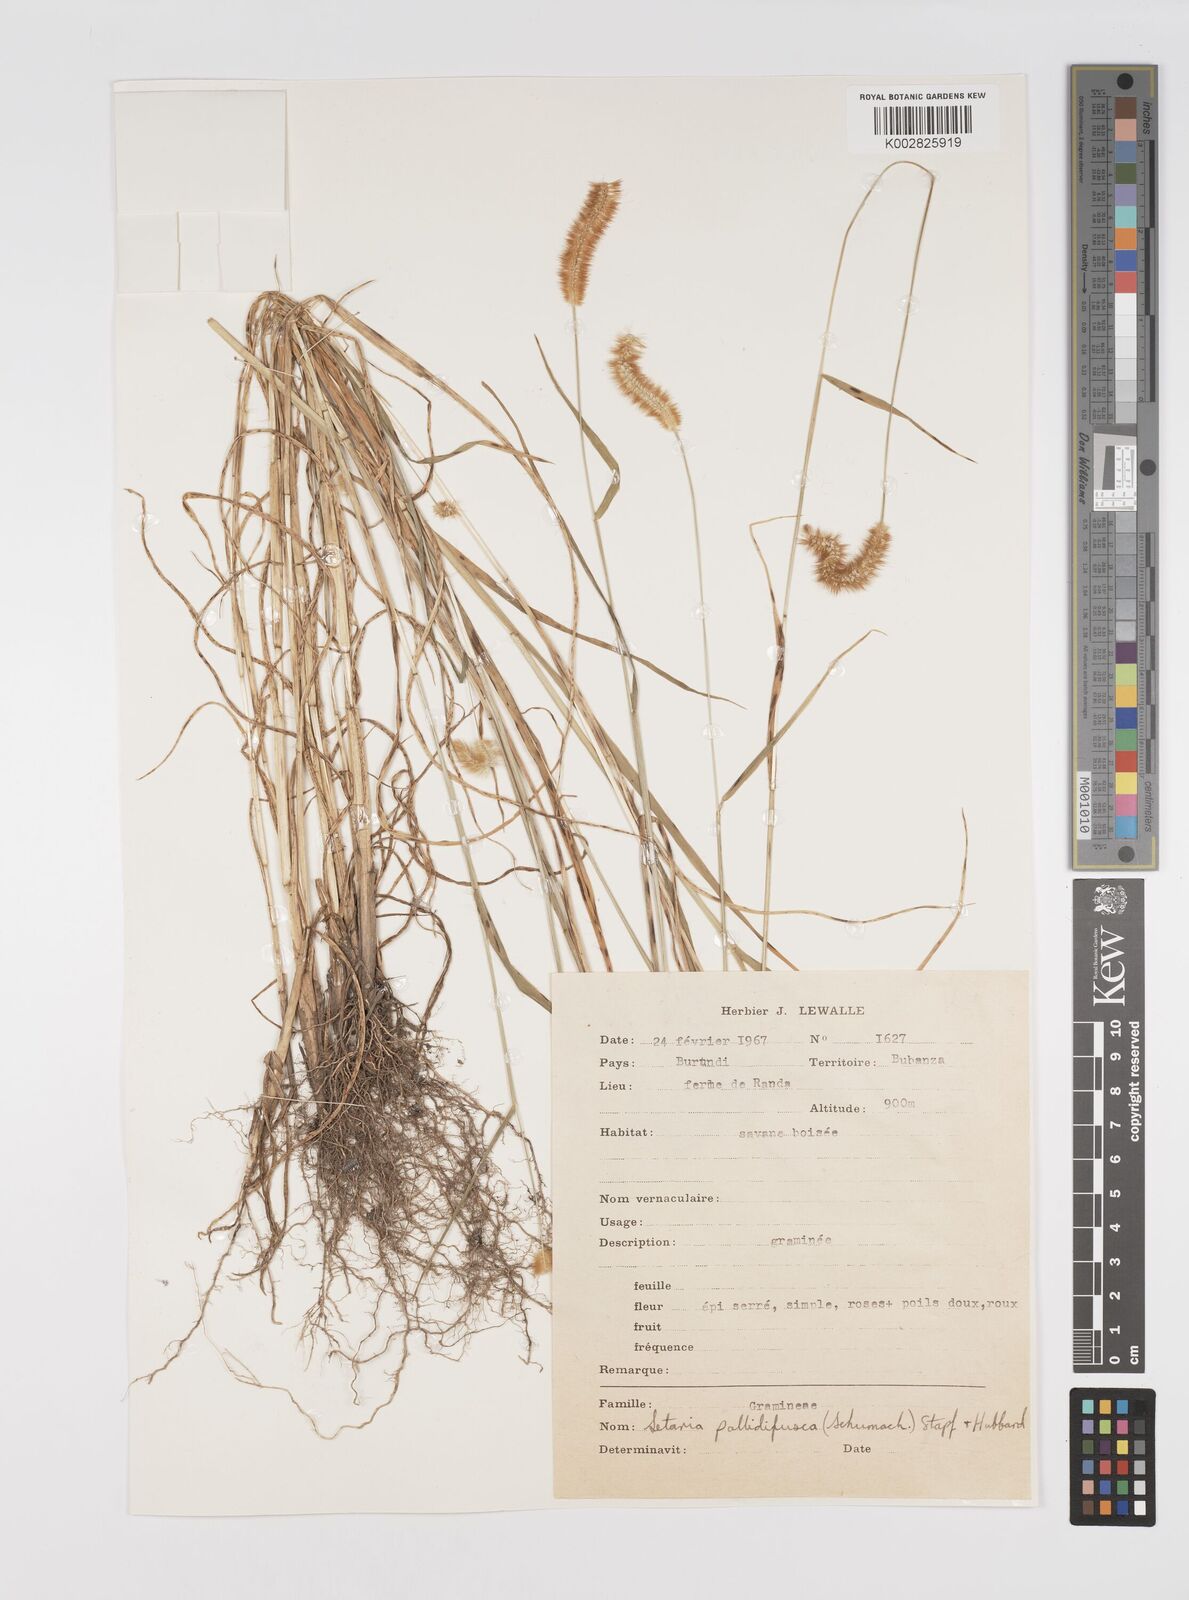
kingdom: Plantae
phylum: Tracheophyta
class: Liliopsida
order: Poales
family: Poaceae
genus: Setaria
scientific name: Setaria pumila
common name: Yellow bristle-grass
